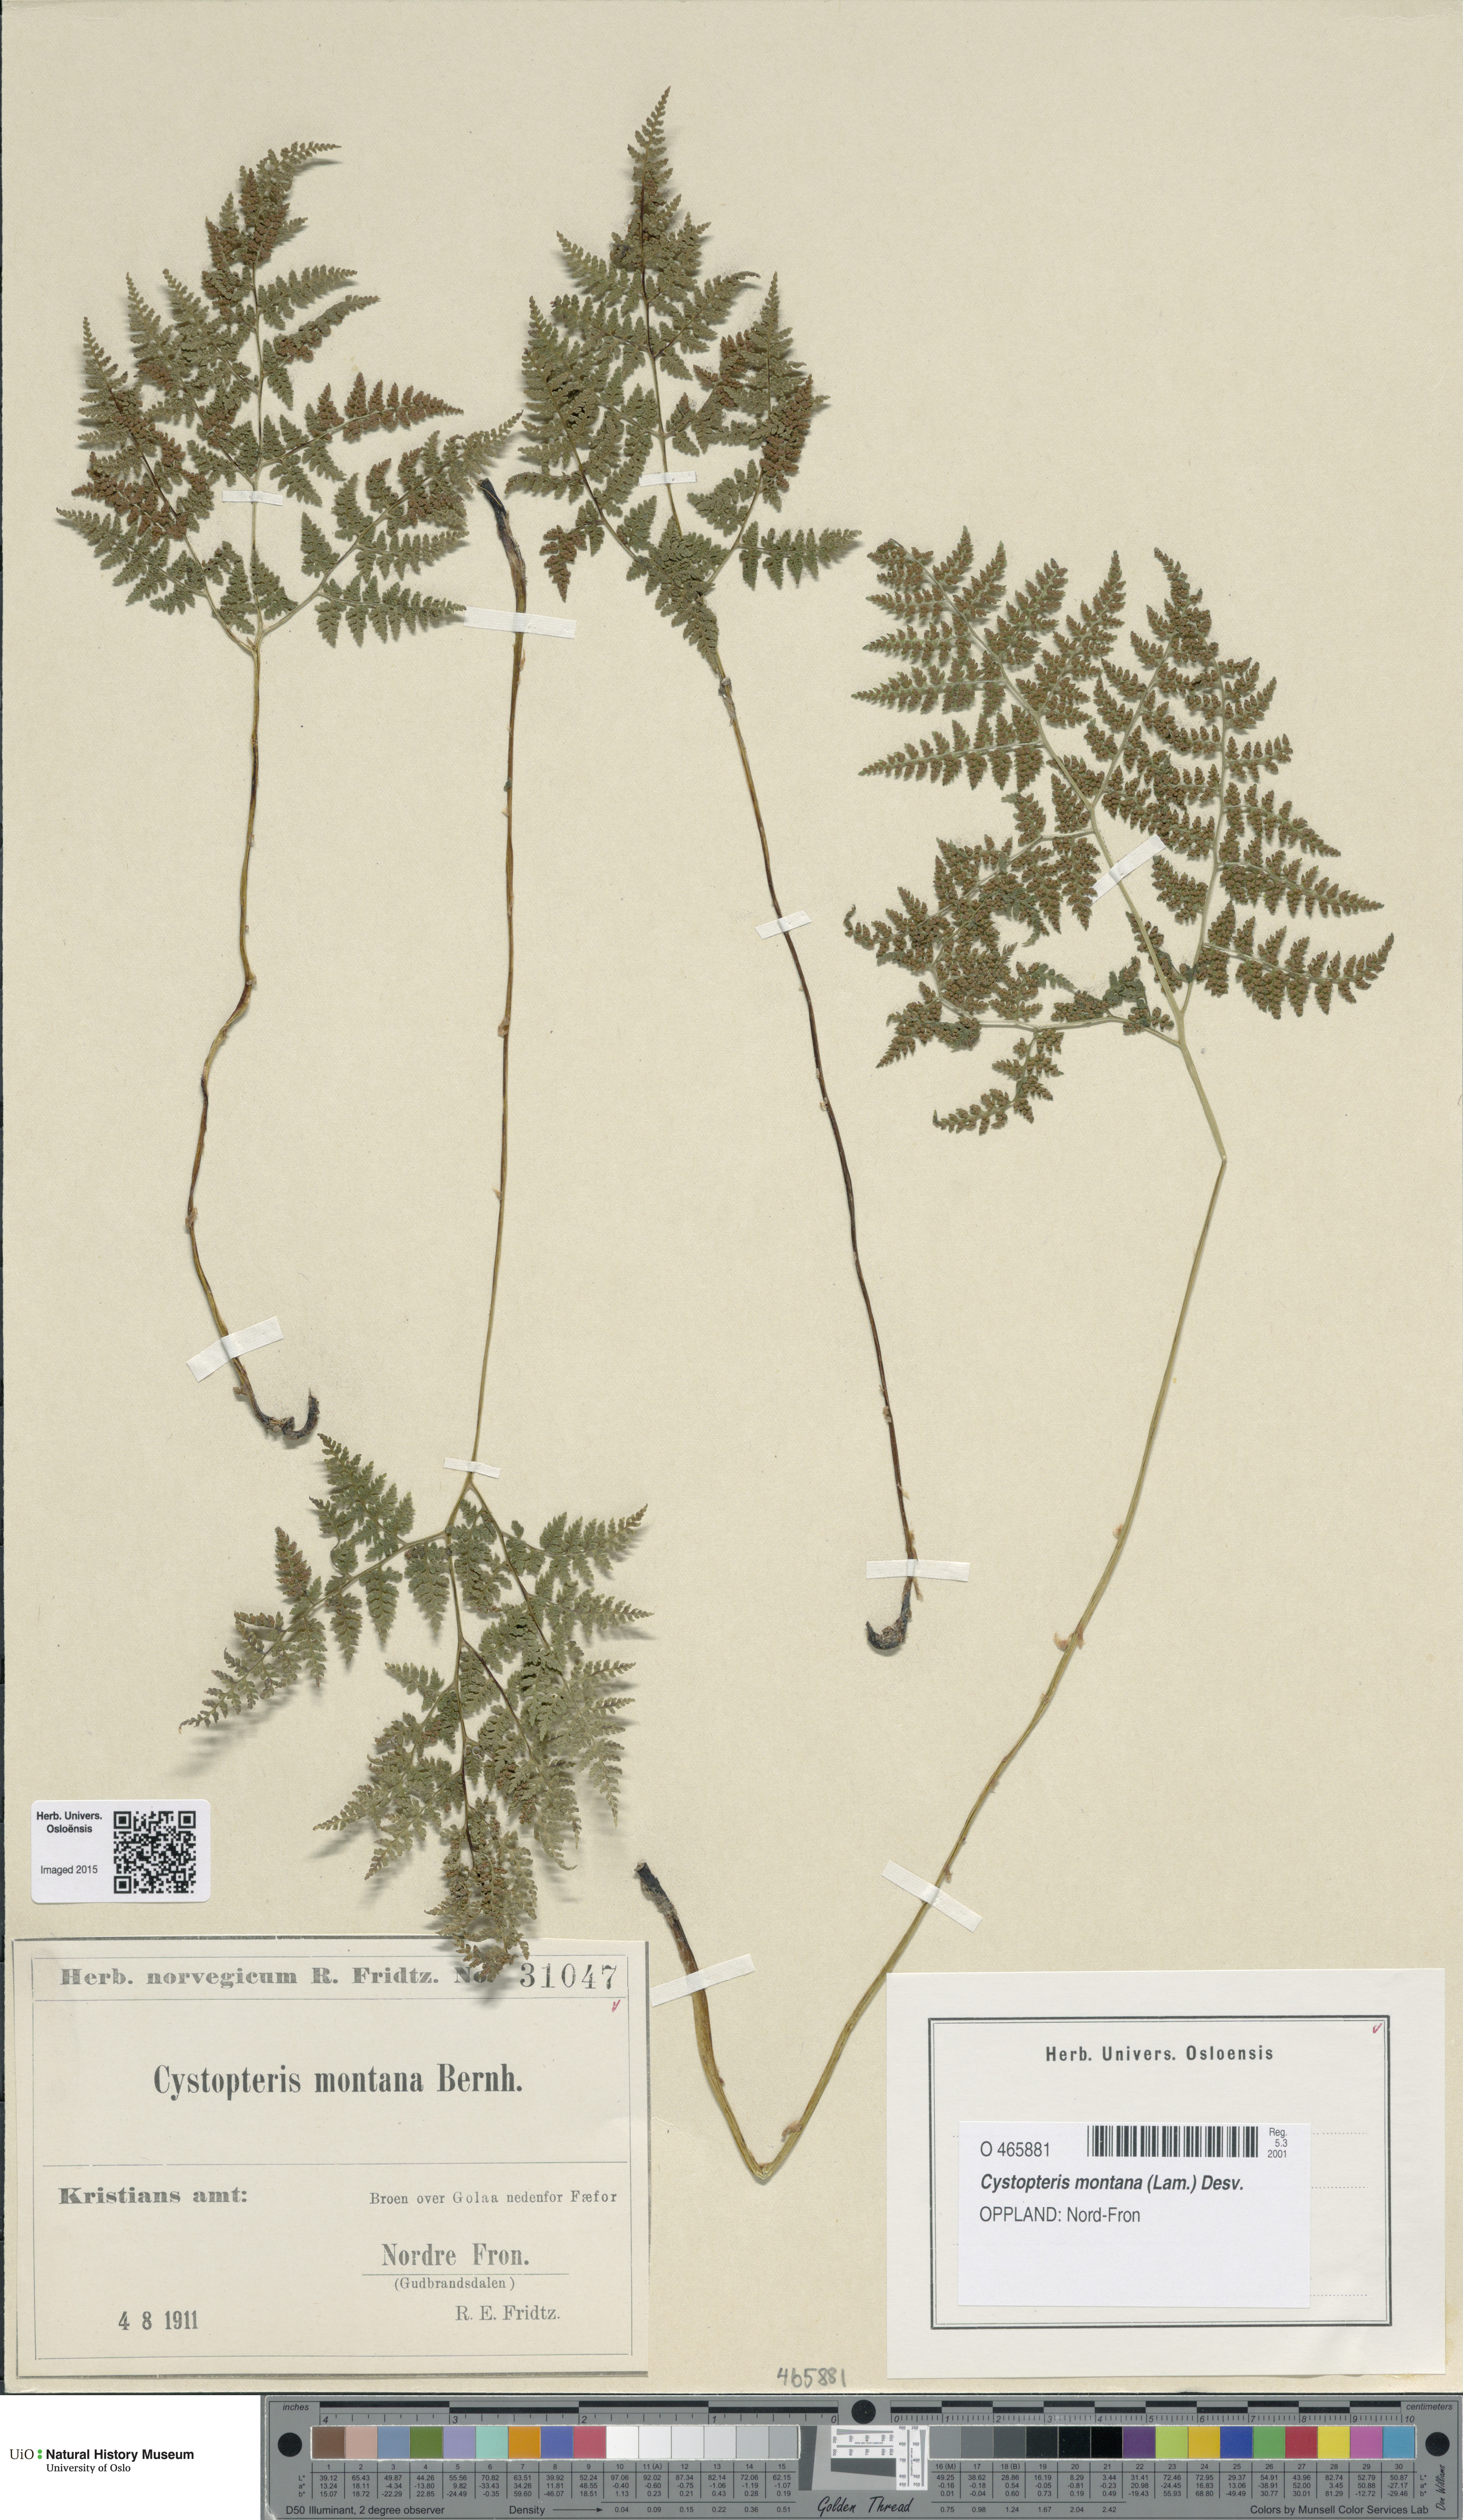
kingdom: Plantae
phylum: Tracheophyta
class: Polypodiopsida
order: Polypodiales
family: Cystopteridaceae
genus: Cystopteris
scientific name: Cystopteris montana
